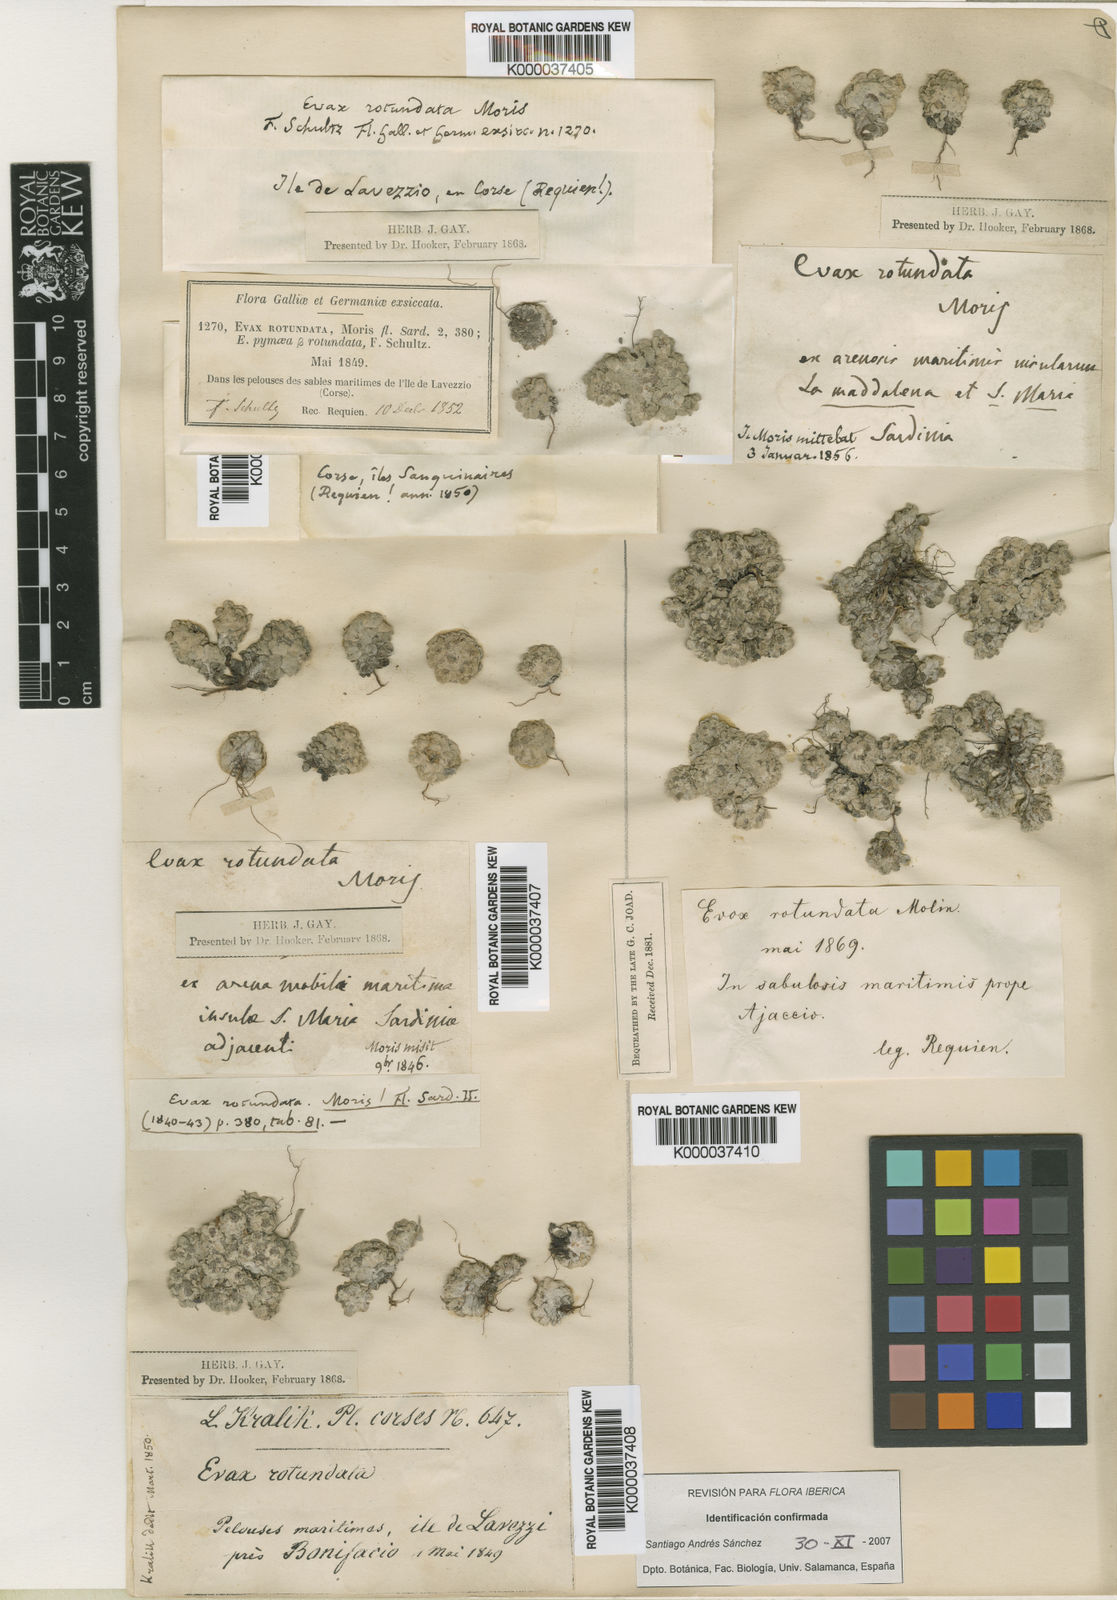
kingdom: Plantae
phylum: Tracheophyta
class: Magnoliopsida
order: Asterales
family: Asteraceae
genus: Filago
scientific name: Filago tyrrhenica
